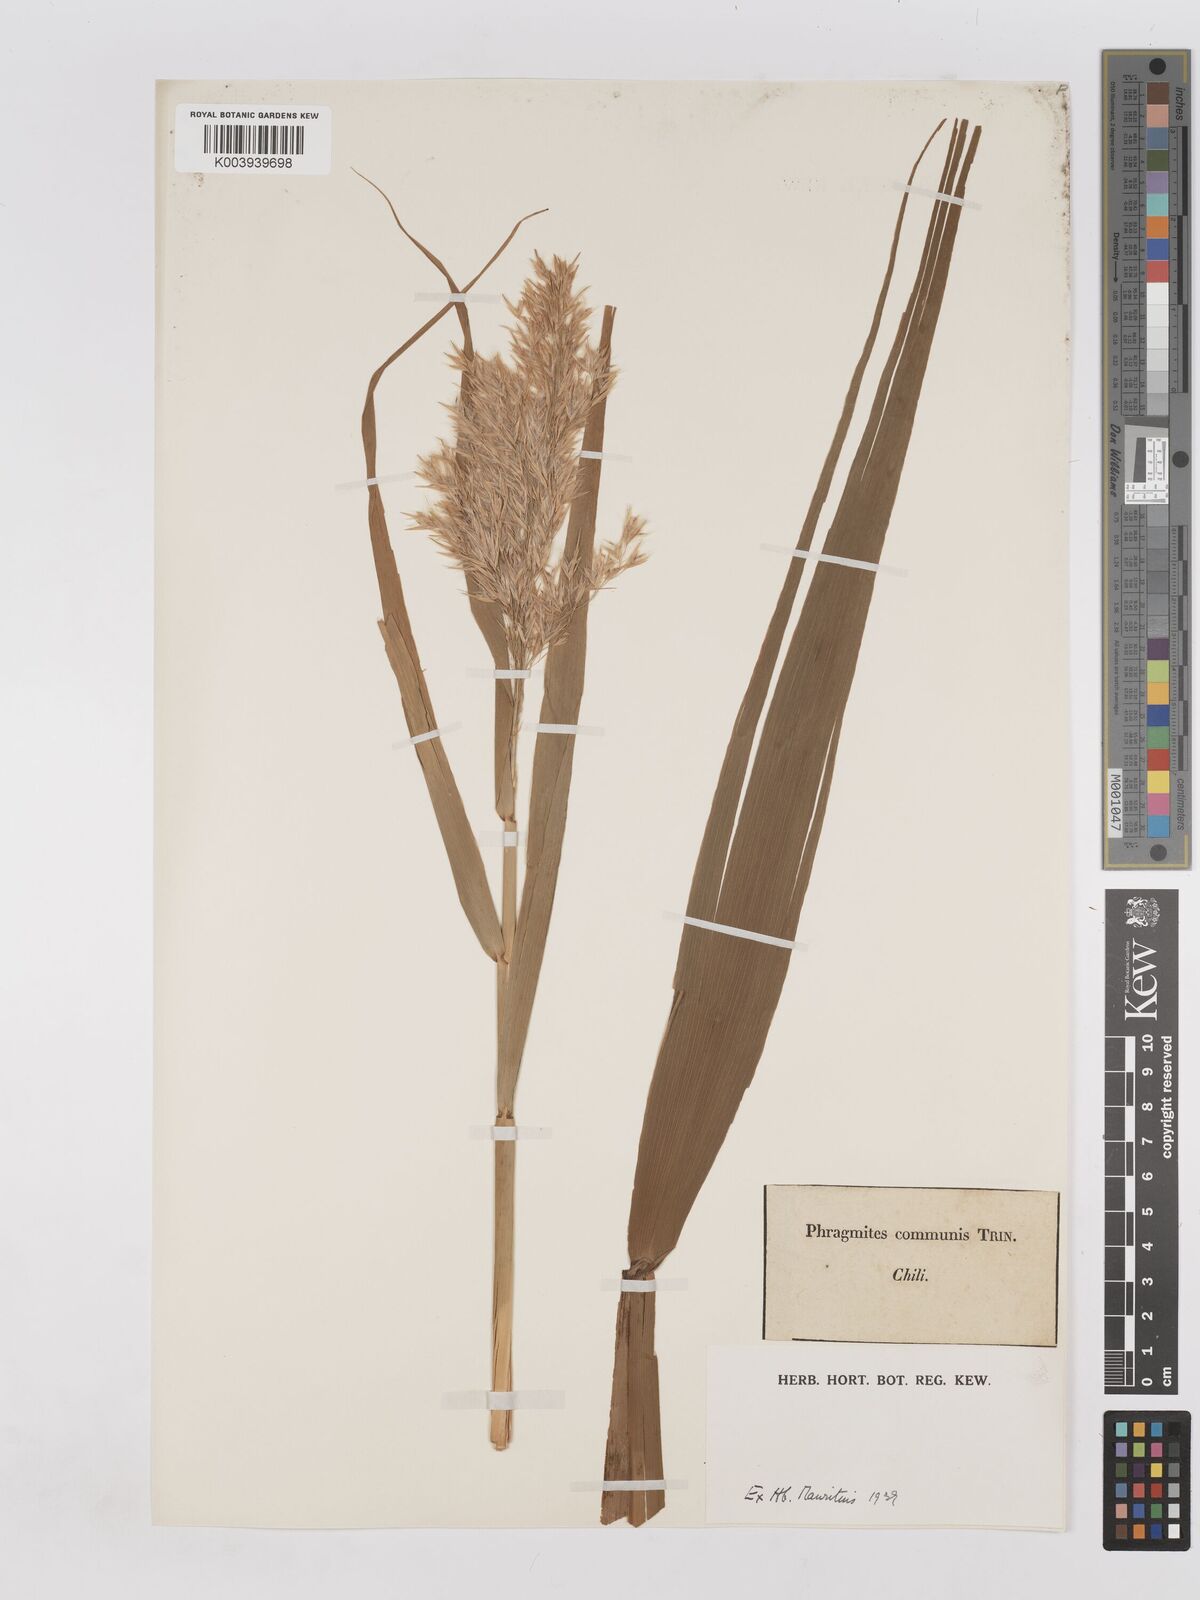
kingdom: Plantae
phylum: Tracheophyta
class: Liliopsida
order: Poales
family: Poaceae
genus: Phragmites
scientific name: Phragmites australis
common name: Common reed
